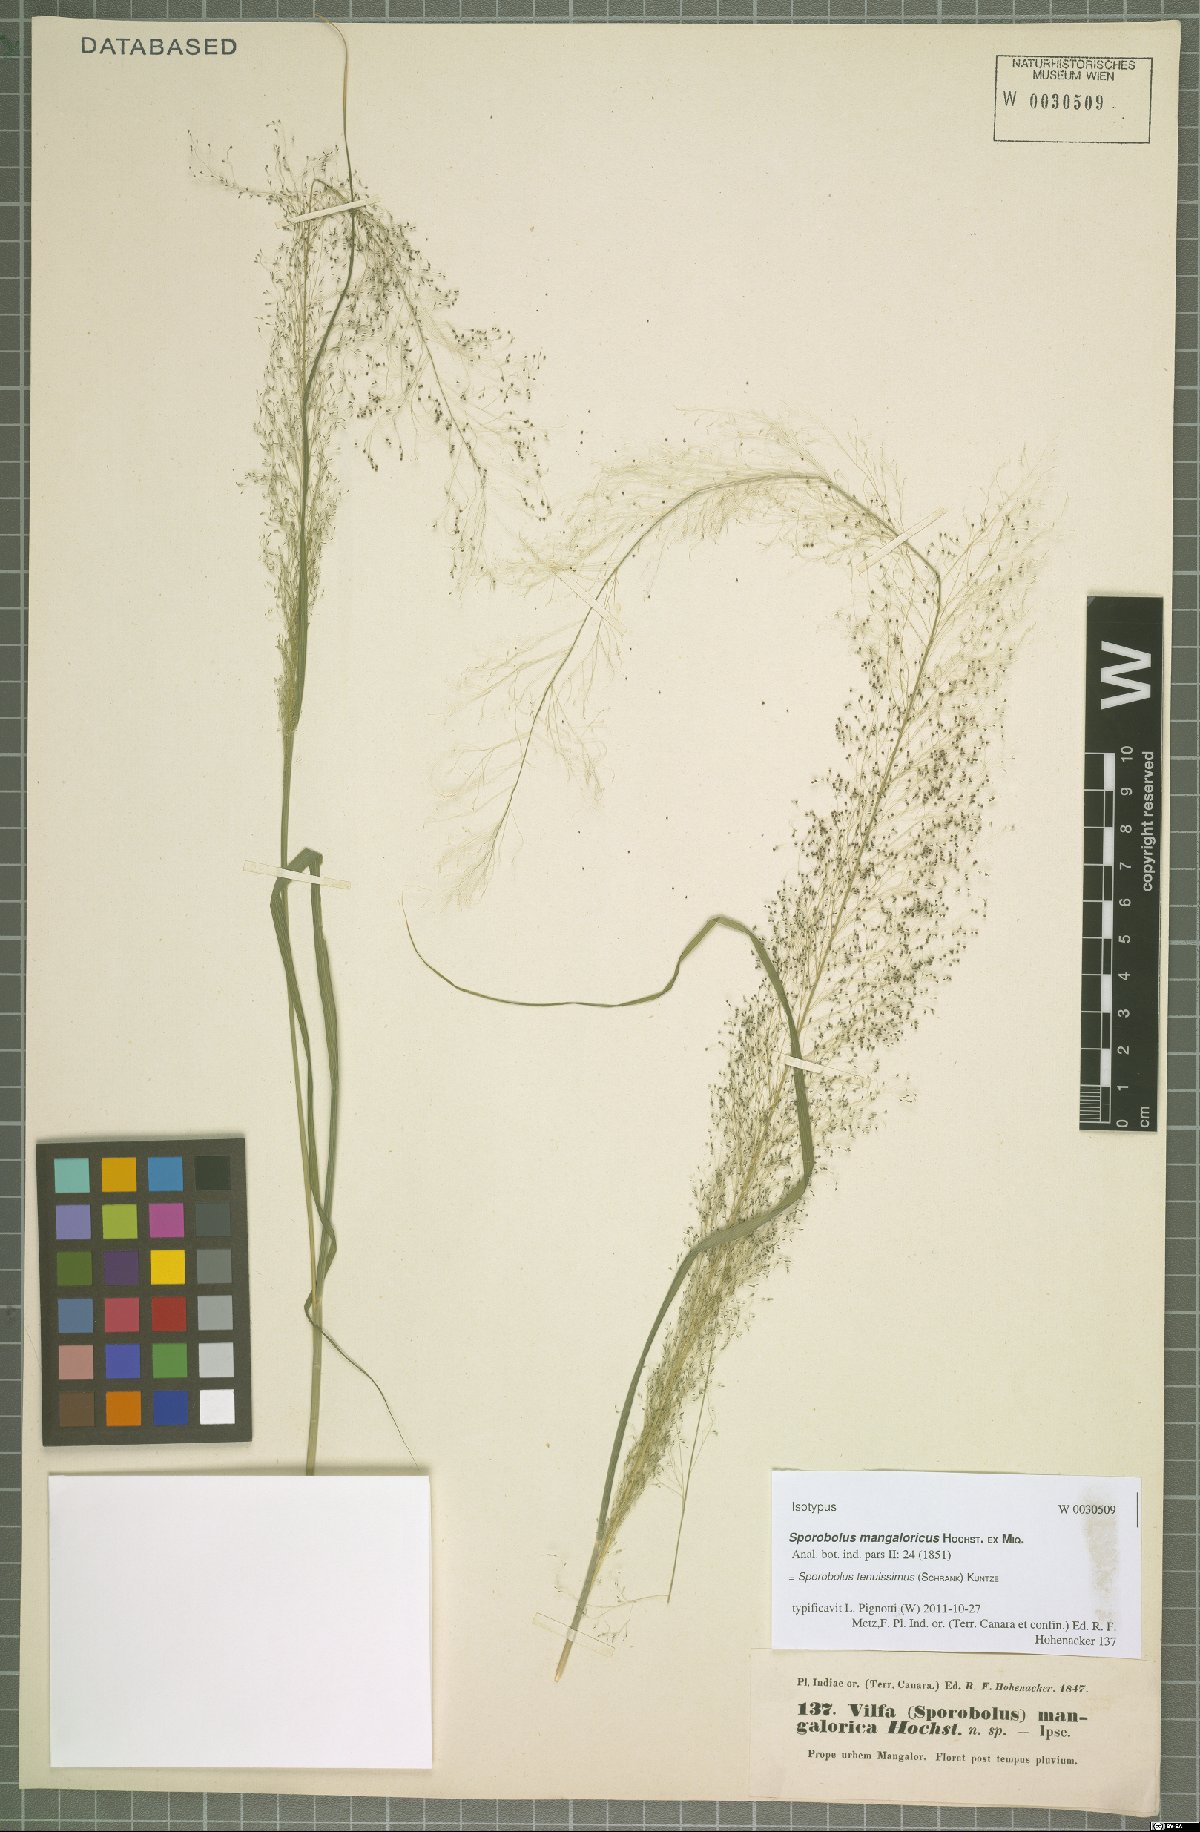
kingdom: Plantae
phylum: Tracheophyta
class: Liliopsida
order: Poales
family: Poaceae
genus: Sporobolus
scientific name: Sporobolus tenuissimus
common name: Tropical dropseed
